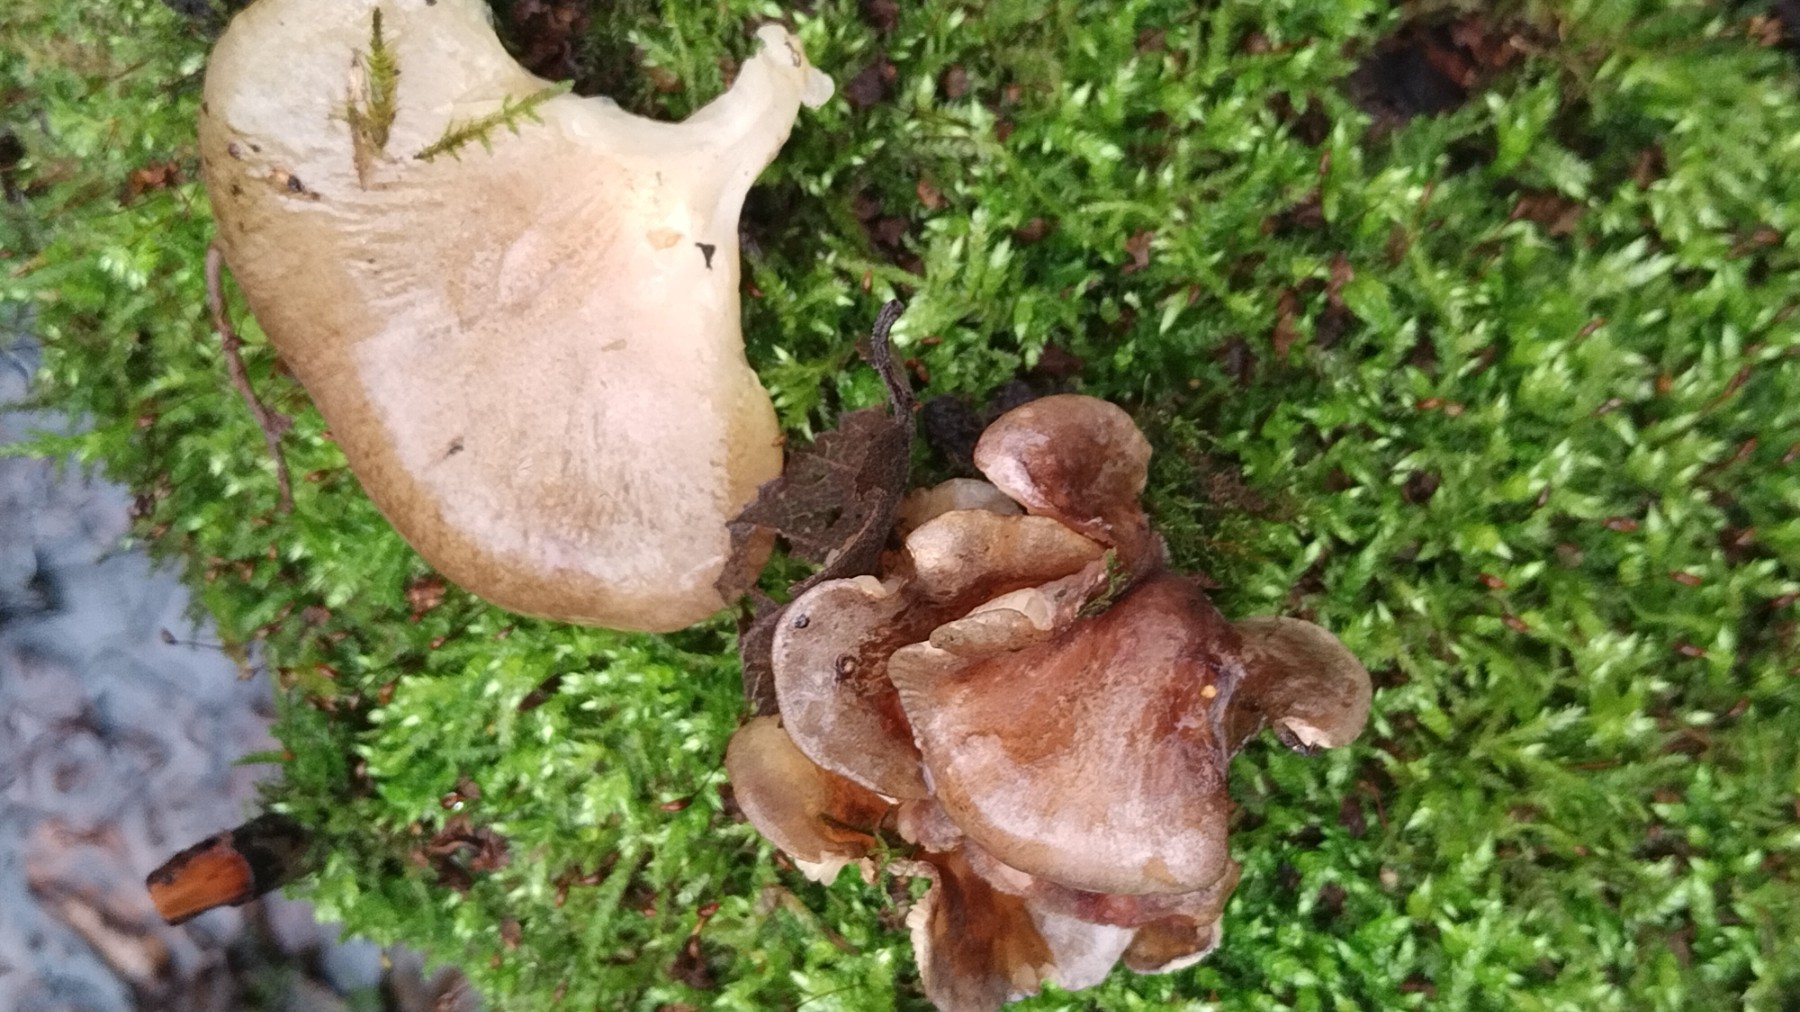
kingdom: Fungi
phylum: Basidiomycota
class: Agaricomycetes
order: Agaricales
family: Sarcomyxaceae
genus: Sarcomyxa
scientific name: Sarcomyxa serotina
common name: gummihat
